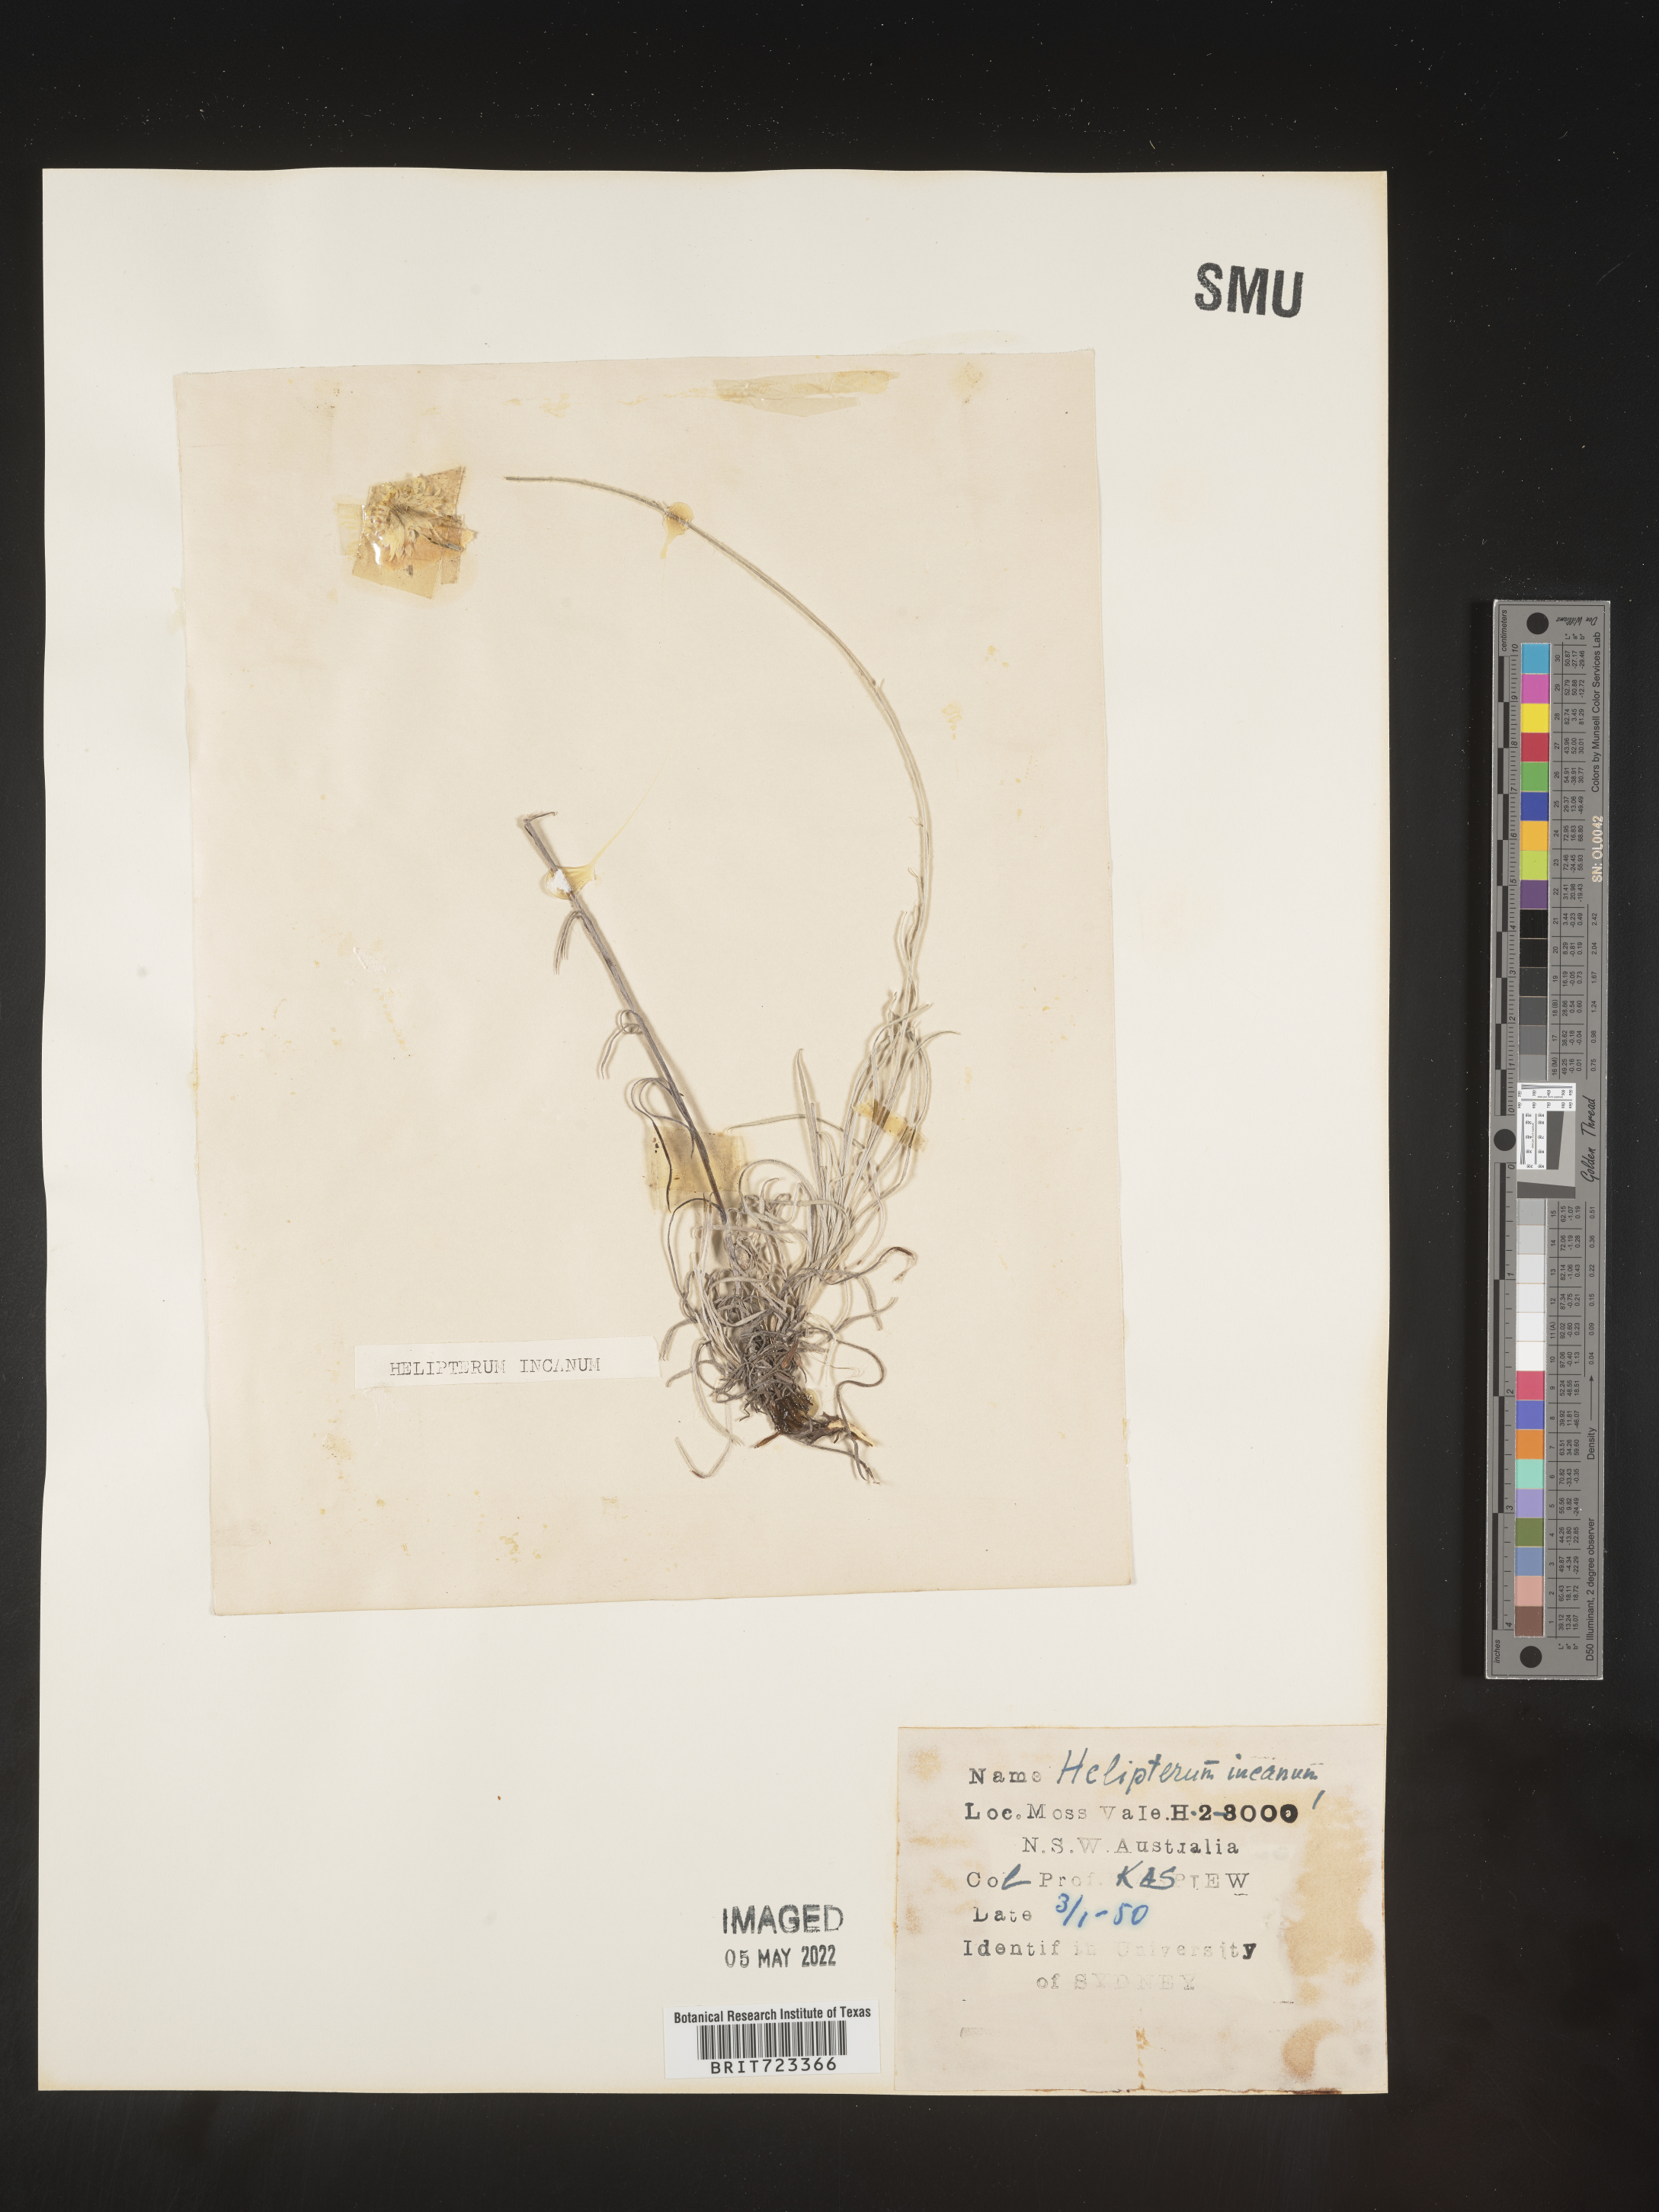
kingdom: Plantae
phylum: Tracheophyta
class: Magnoliopsida
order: Asterales
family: Asteraceae
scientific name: Asteraceae
